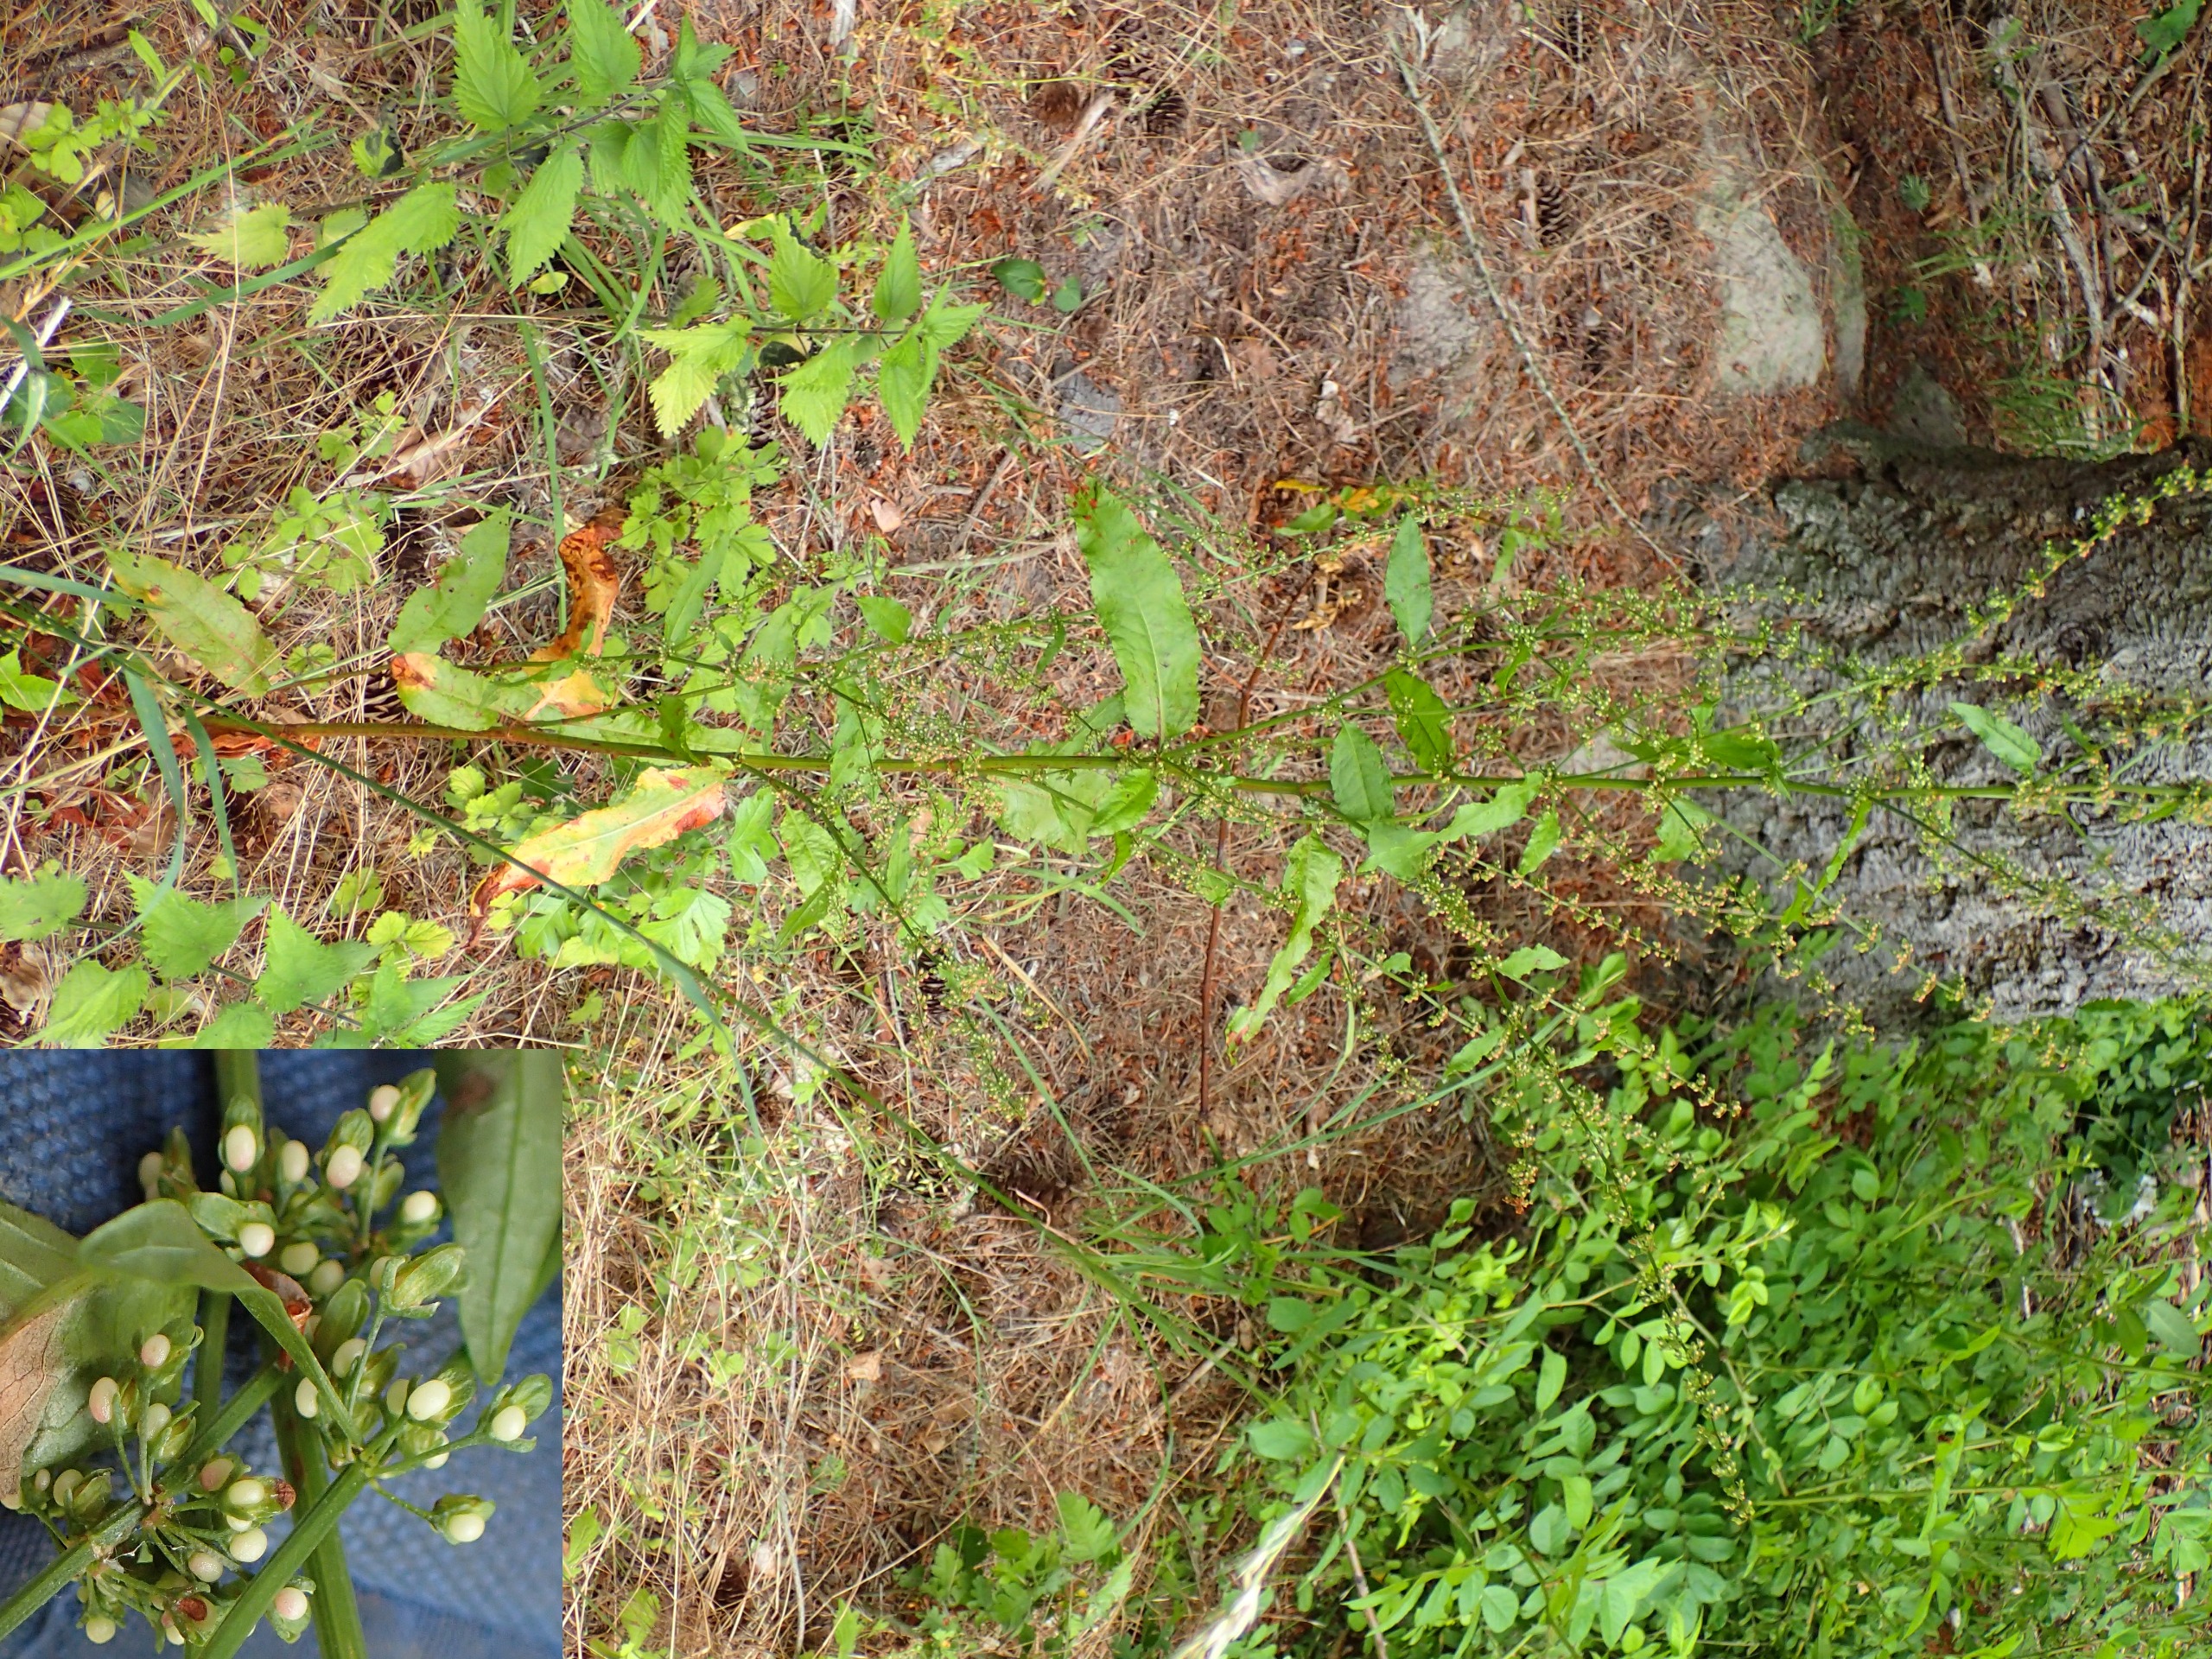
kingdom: Plantae
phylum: Tracheophyta
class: Magnoliopsida
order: Caryophyllales
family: Polygonaceae
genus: Rumex
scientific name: Rumex sanguineus
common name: Skov-skræppe
